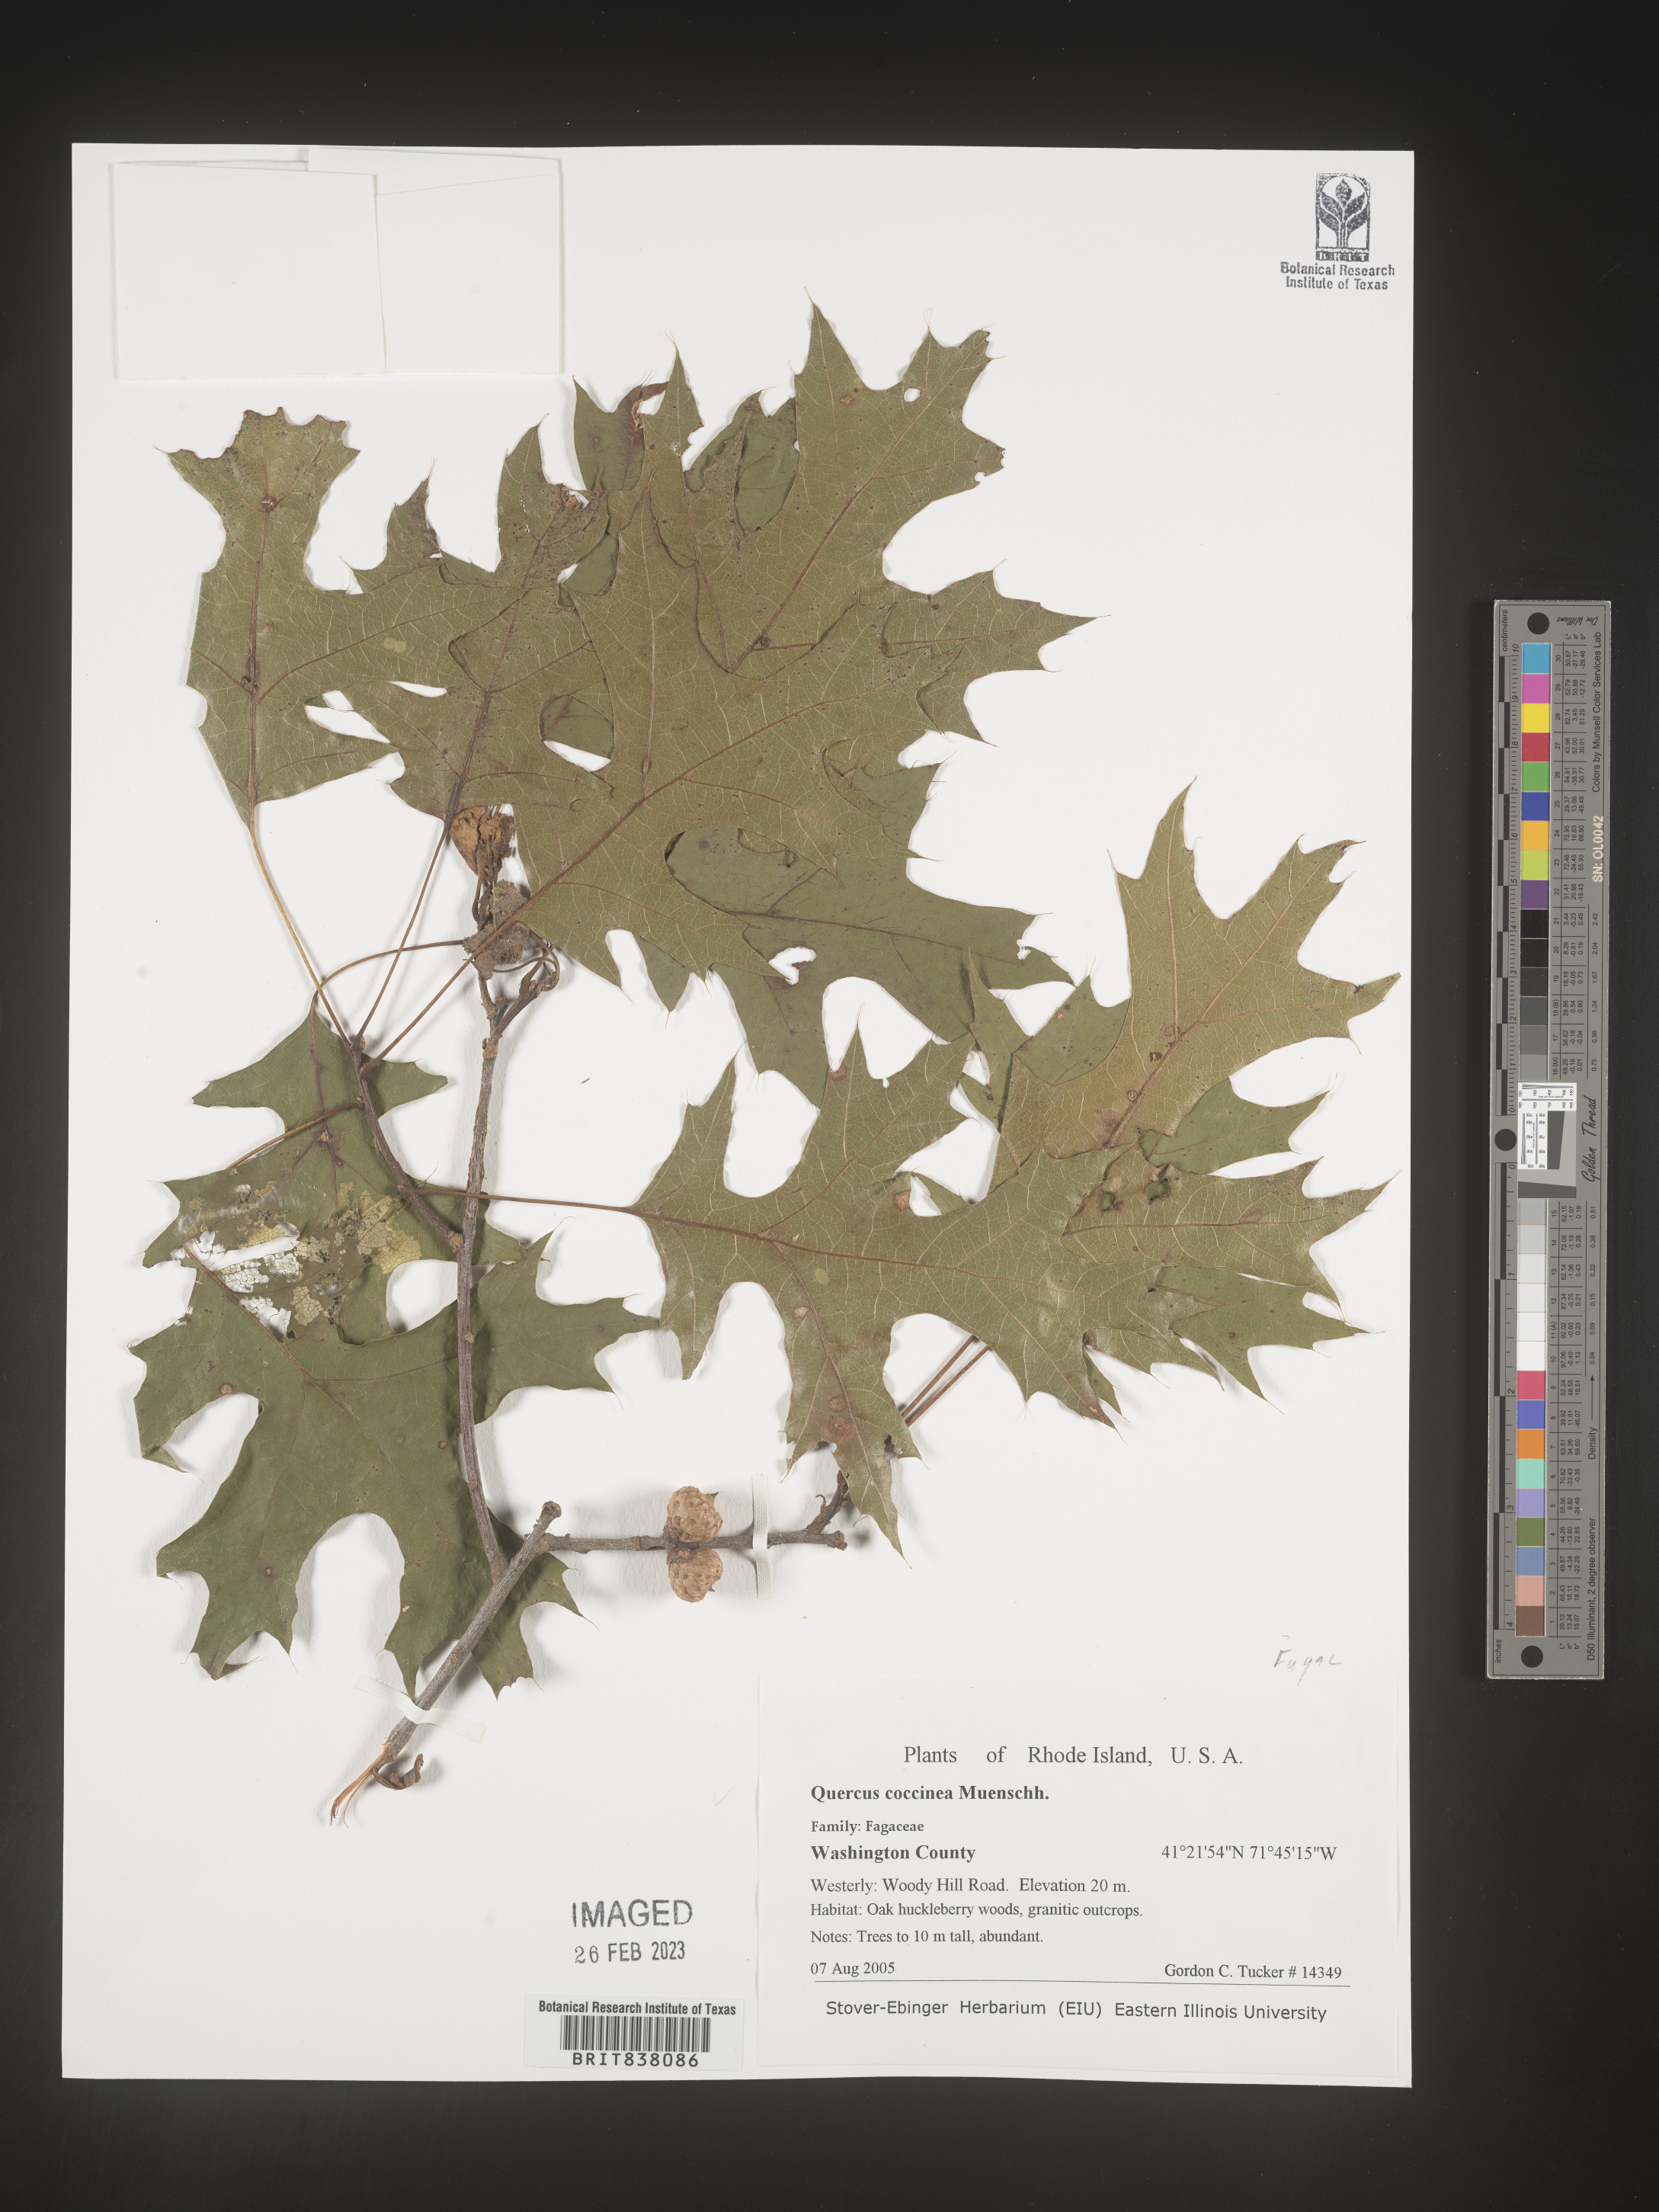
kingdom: Plantae
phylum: Tracheophyta
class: Magnoliopsida
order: Fagales
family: Fagaceae
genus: Quercus
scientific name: Quercus coccinea
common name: Scarlet oak
